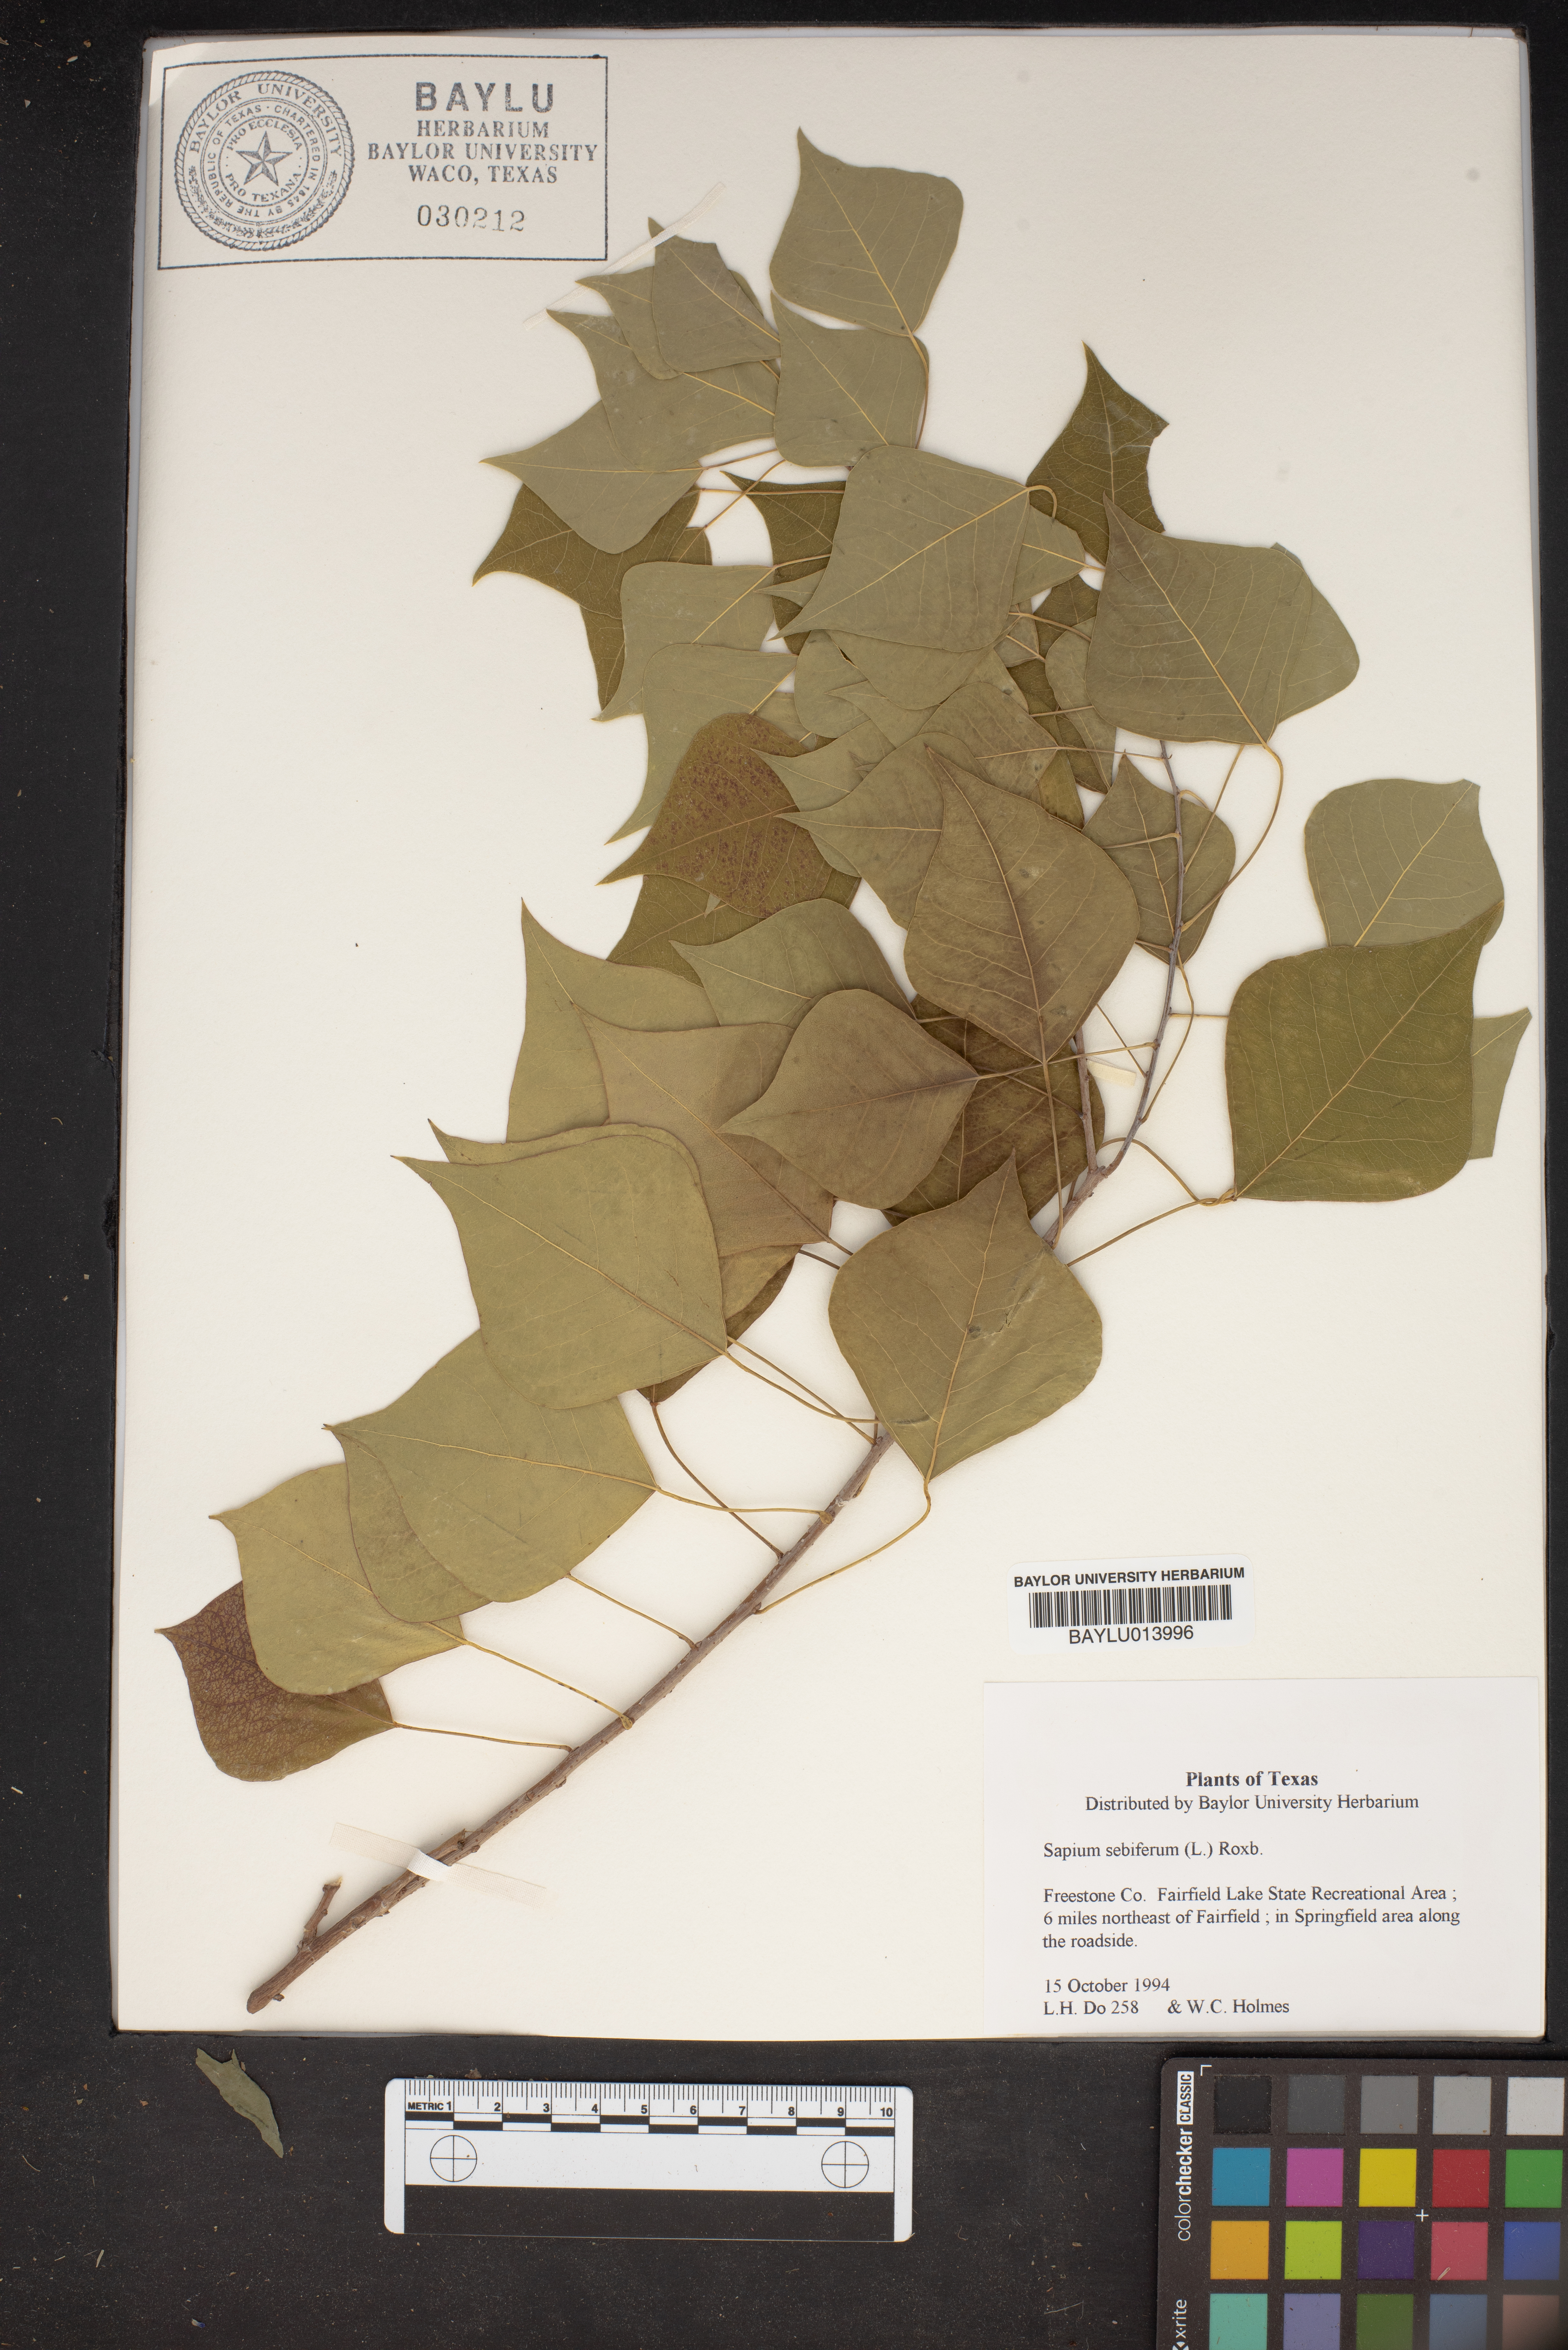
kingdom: Plantae
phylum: Tracheophyta
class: Magnoliopsida
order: Malpighiales
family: Euphorbiaceae
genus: Triadica
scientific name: Triadica sebifera
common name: Chinese tallow
